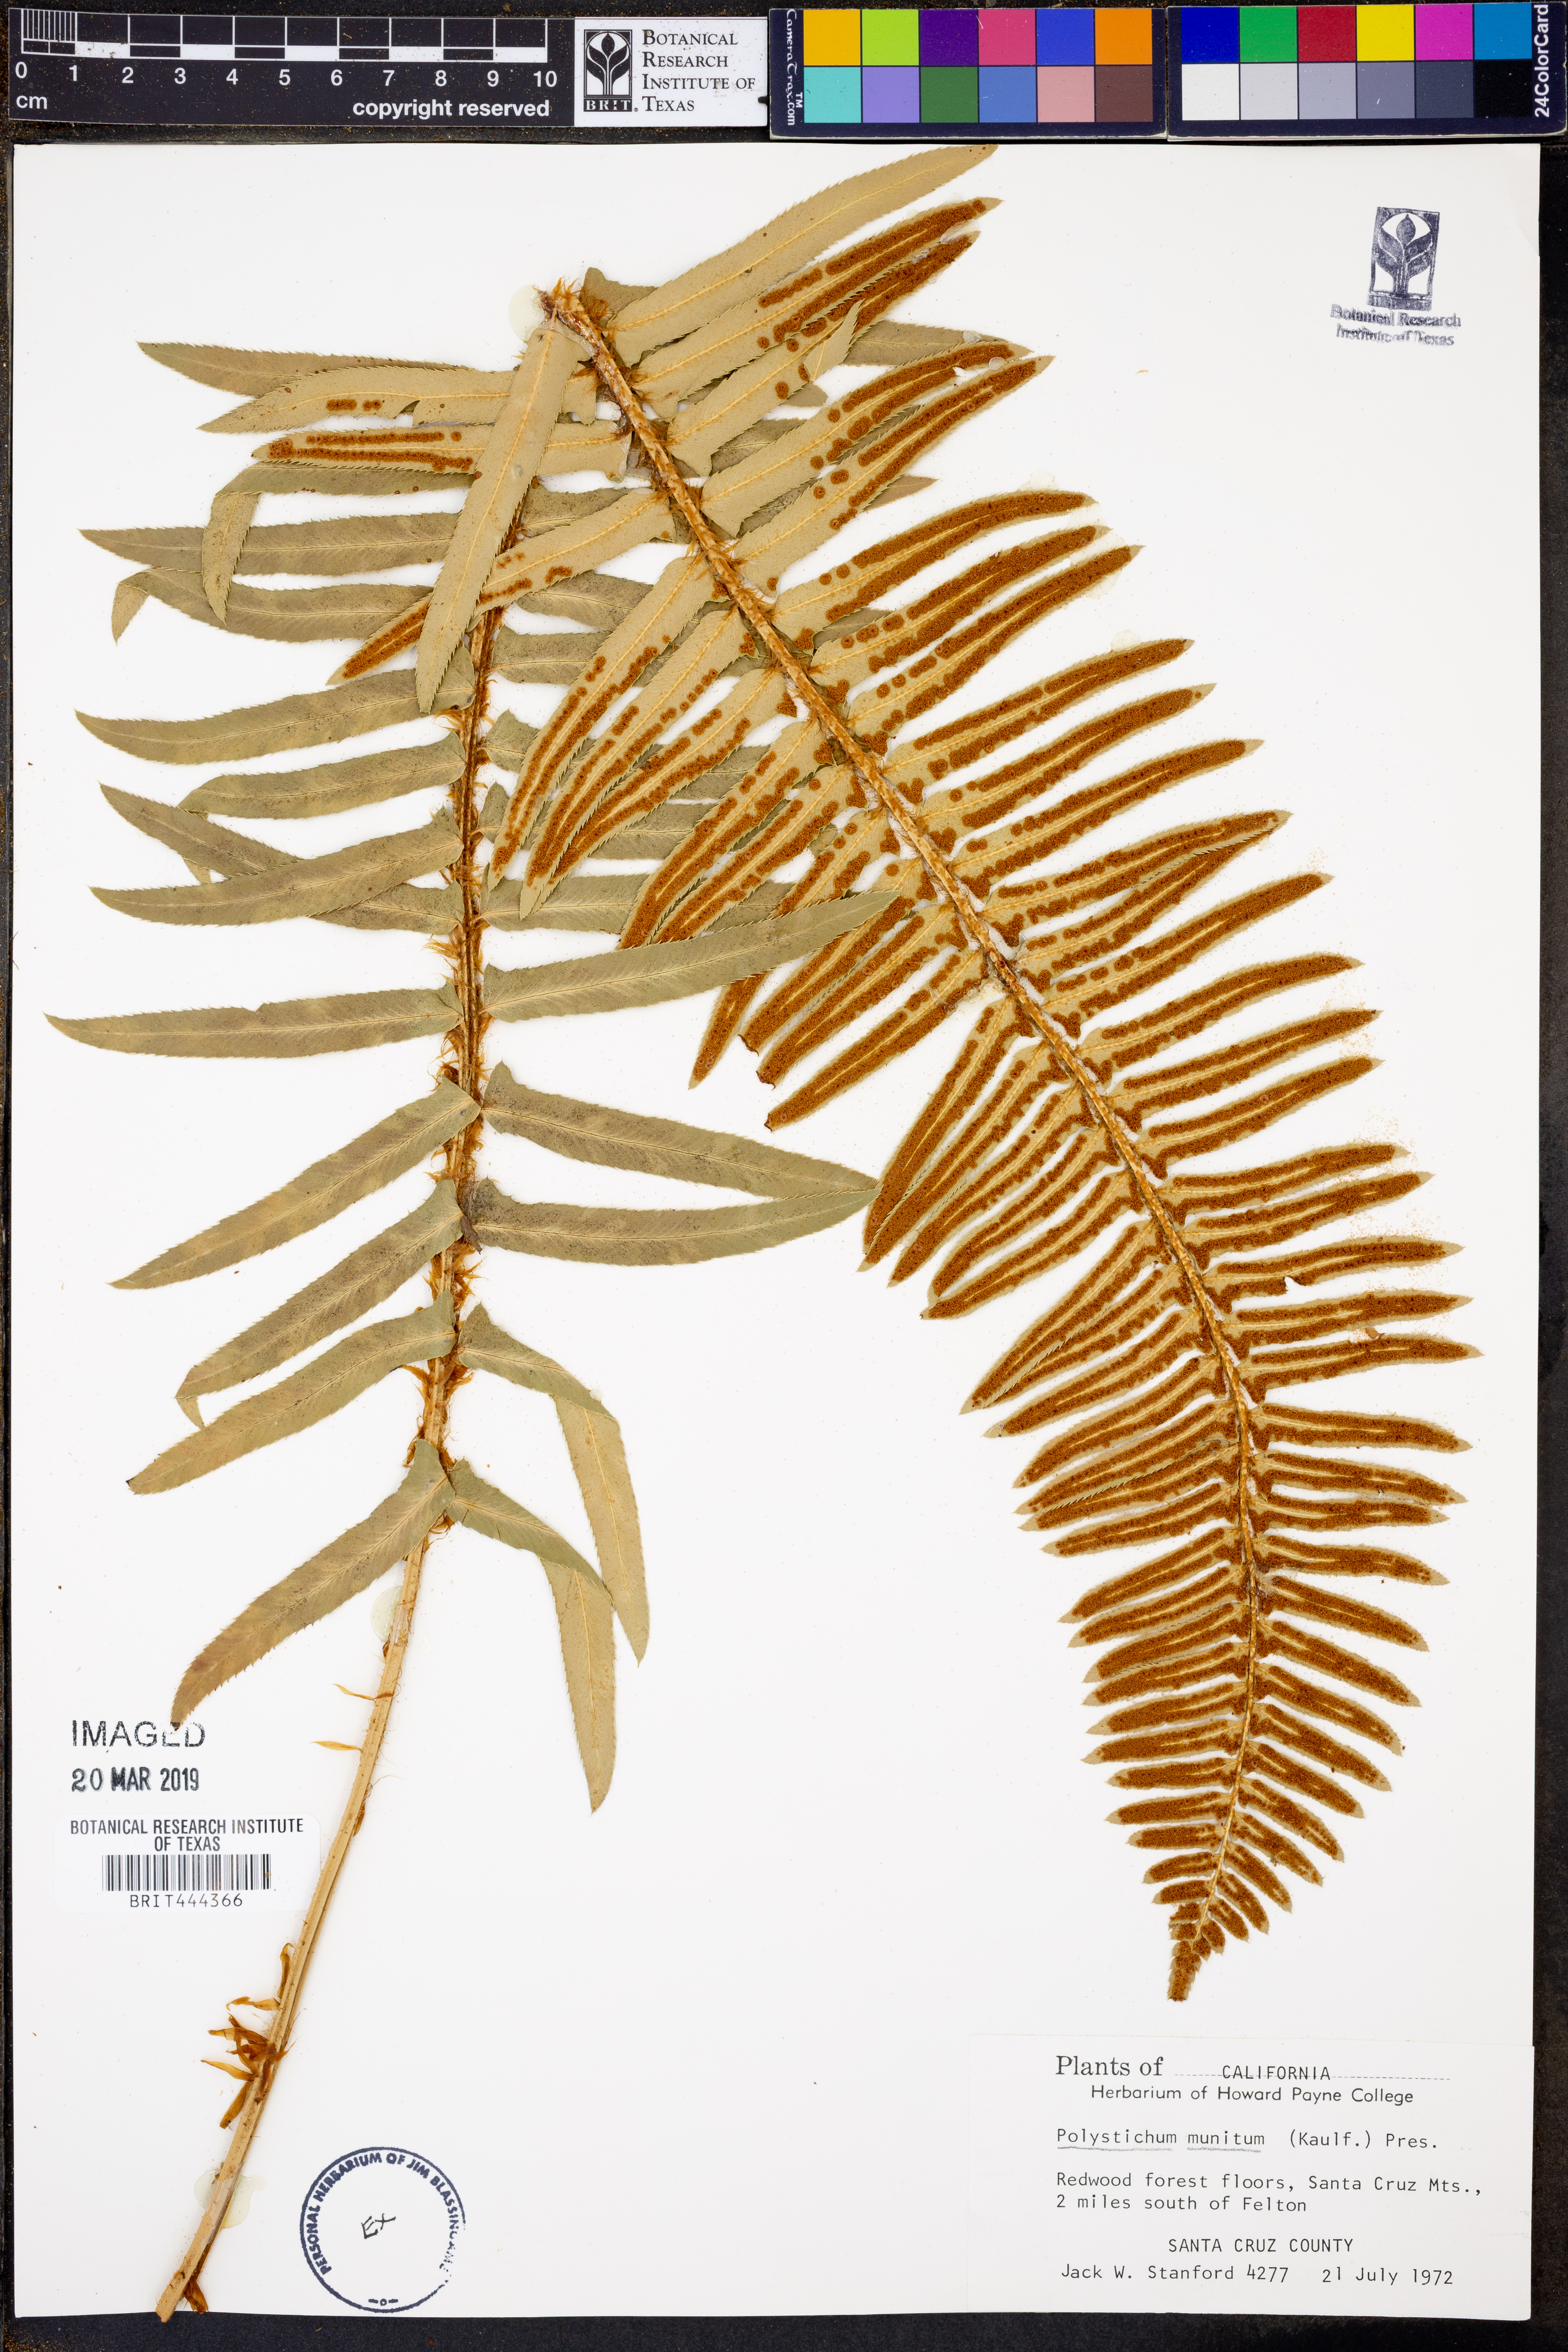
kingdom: Plantae
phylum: Tracheophyta
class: Polypodiopsida
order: Polypodiales
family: Dryopteridaceae
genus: Polystichum
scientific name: Polystichum munitum
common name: Western sword-fern
